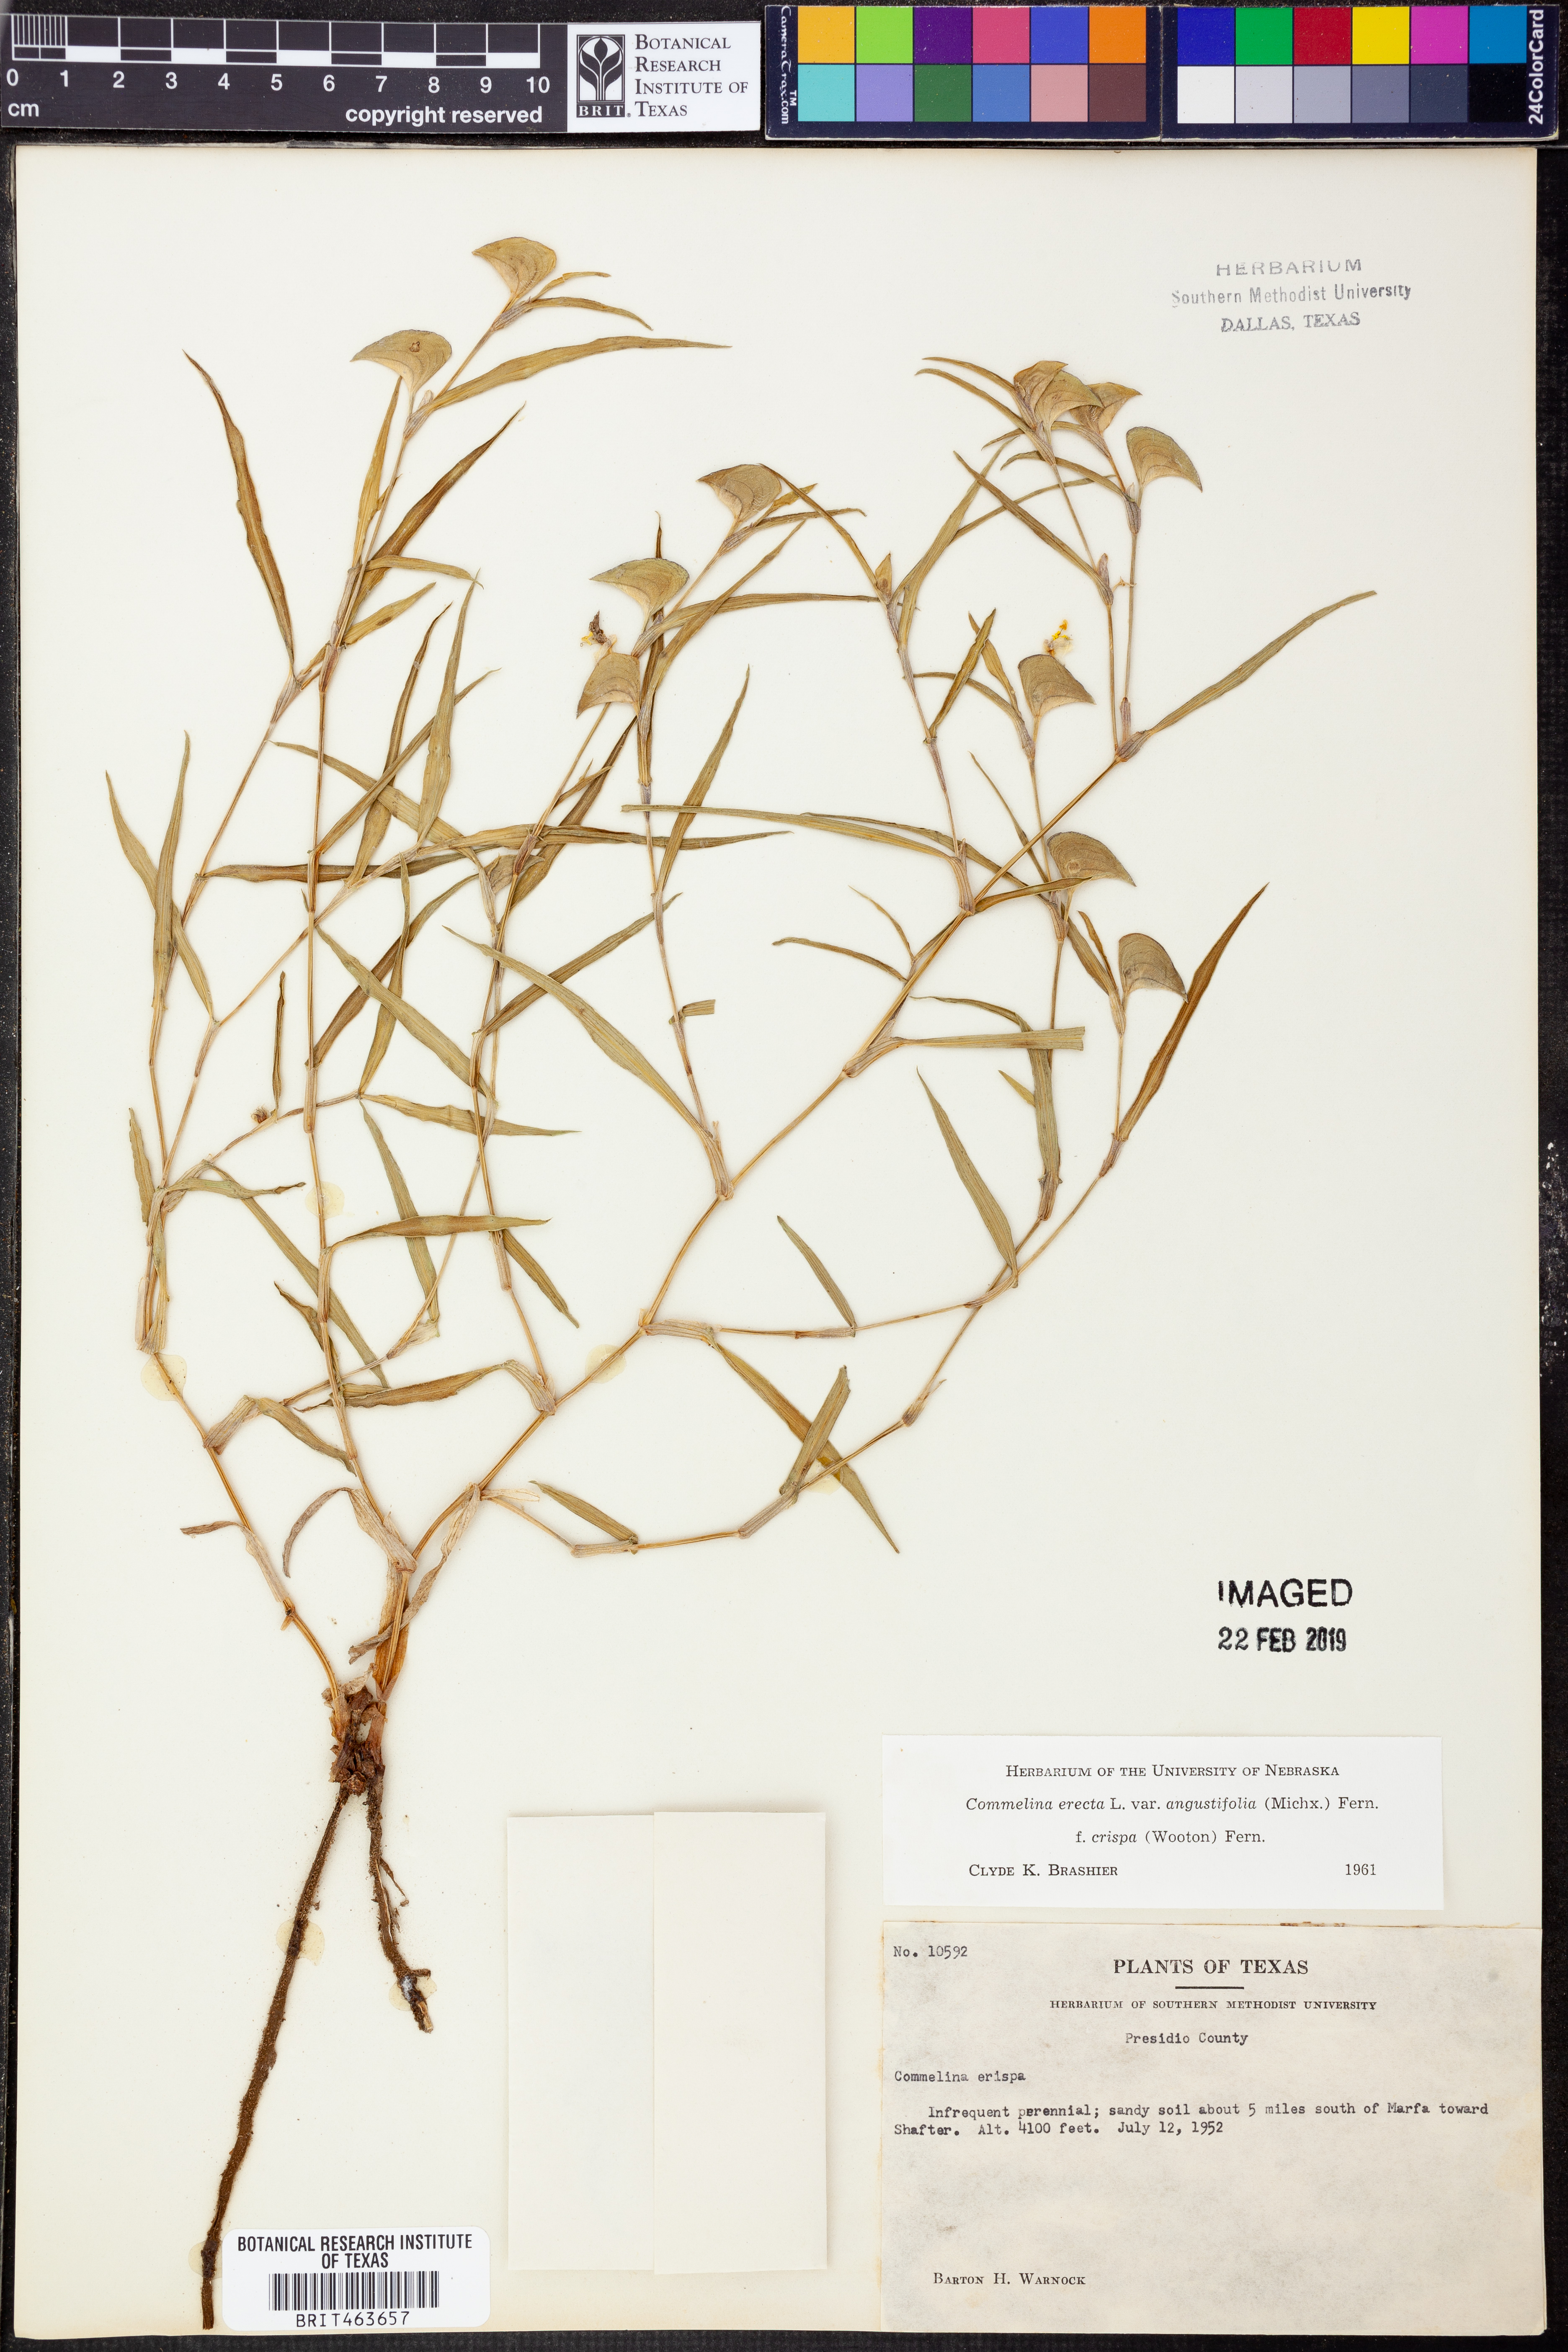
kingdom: Plantae
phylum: Tracheophyta
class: Liliopsida
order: Commelinales
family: Commelinaceae
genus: Commelina
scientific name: Commelina erecta
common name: Blousel blommetjie
